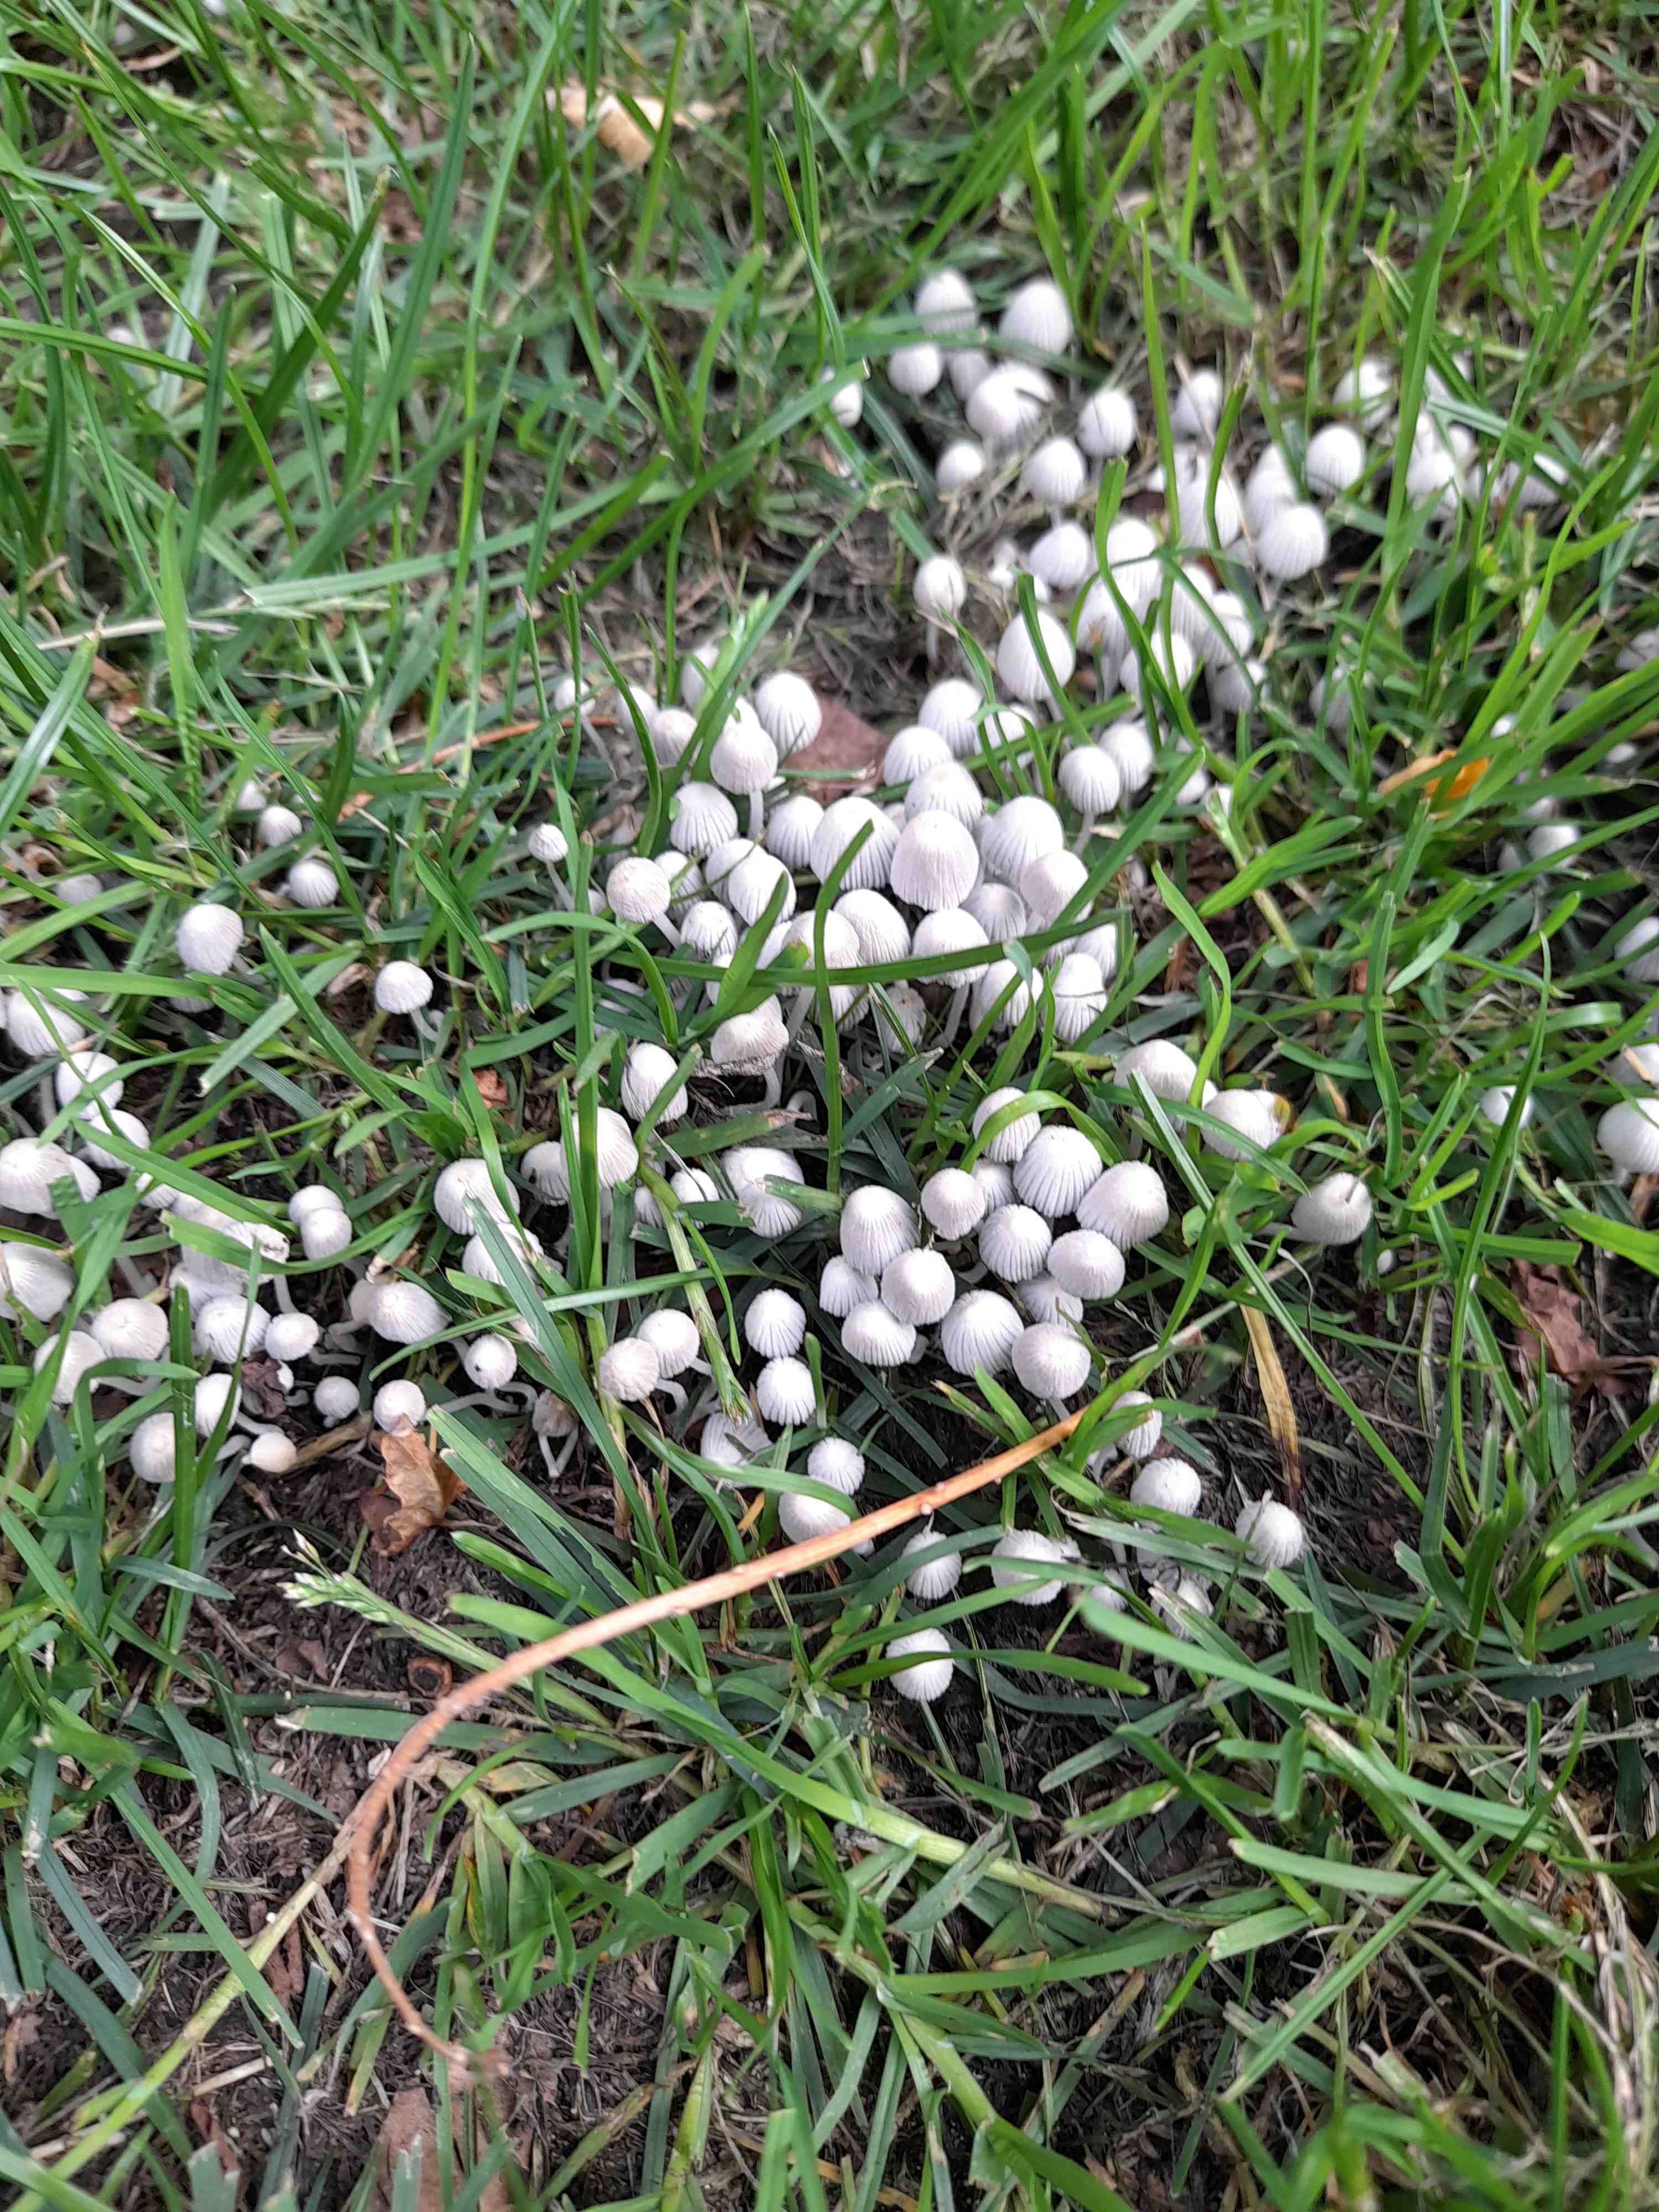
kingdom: Fungi
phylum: Basidiomycota
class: Agaricomycetes
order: Agaricales
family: Psathyrellaceae
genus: Coprinellus
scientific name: Coprinellus disseminatus
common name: bredsået blækhat
